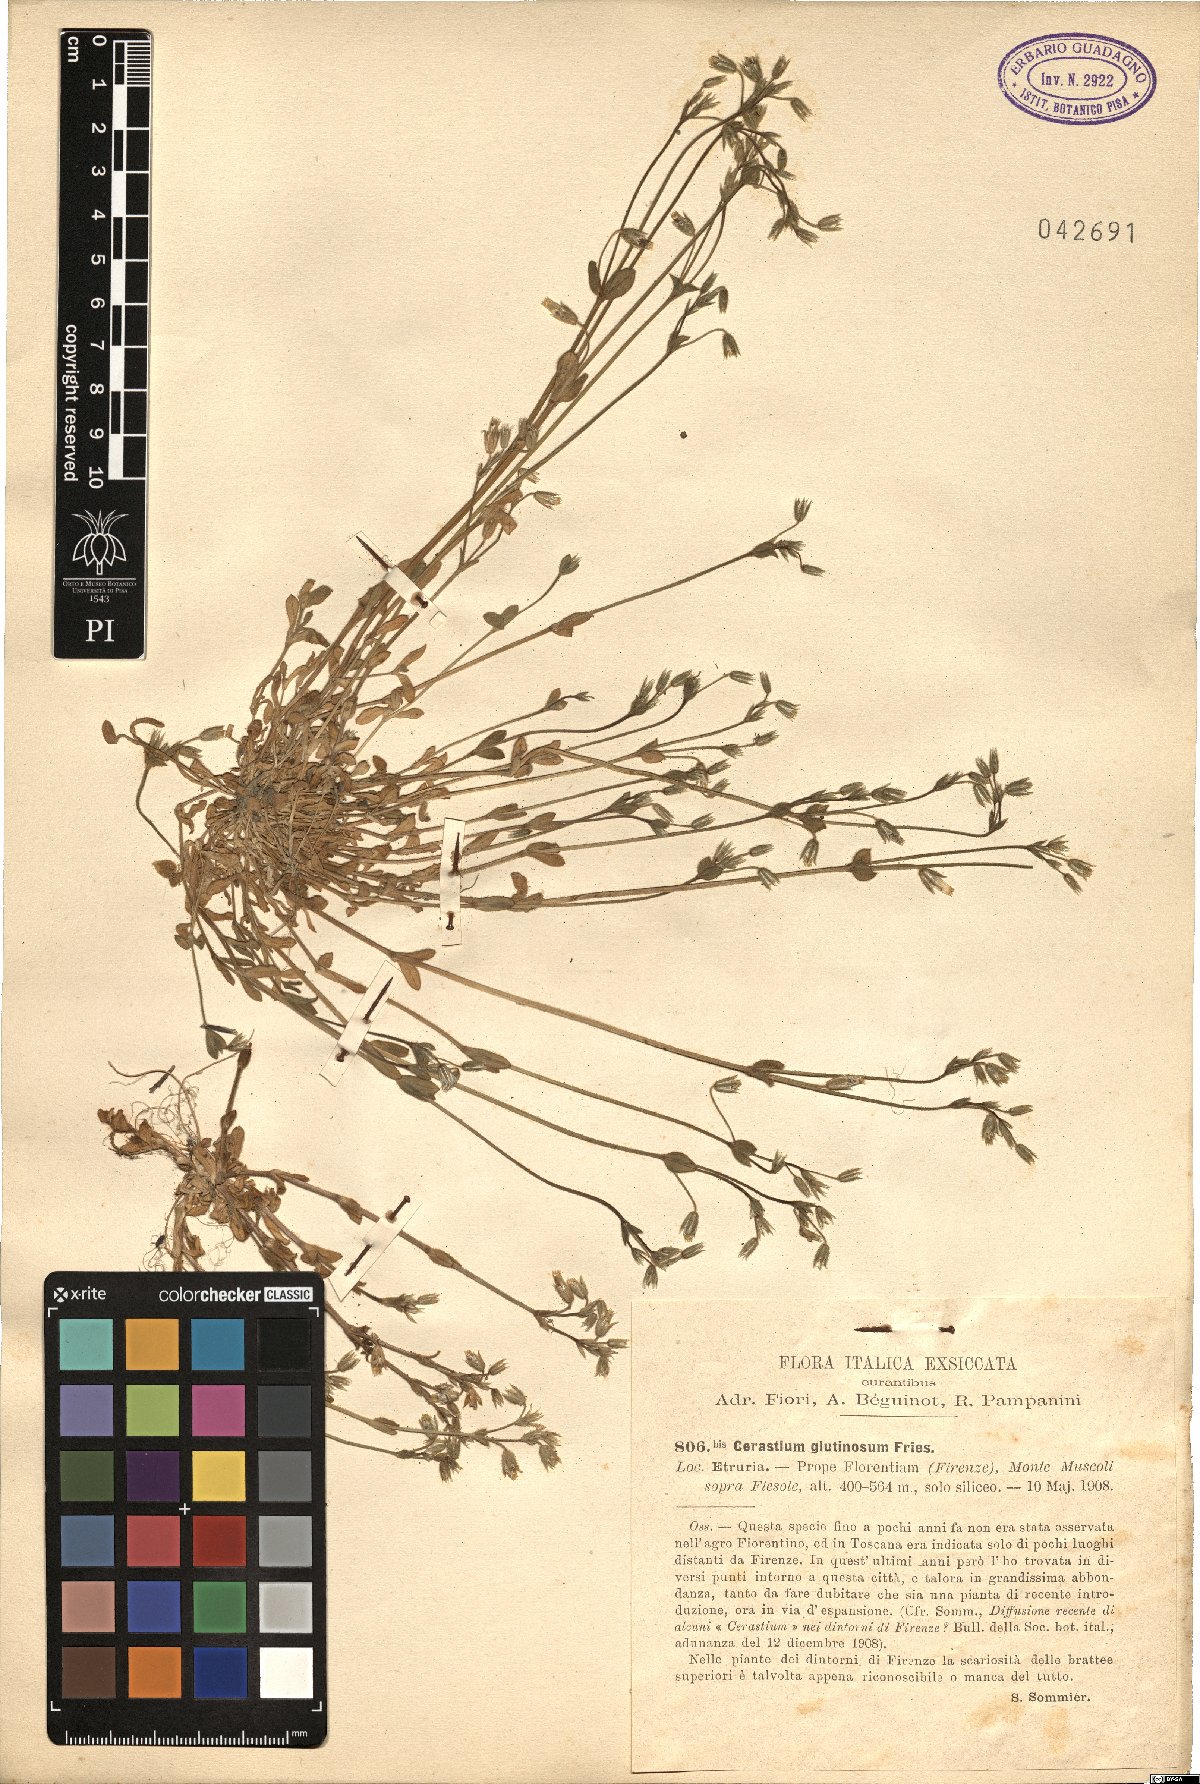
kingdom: Plantae
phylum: Tracheophyta
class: Magnoliopsida
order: Caryophyllales
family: Caryophyllaceae
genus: Cerastium
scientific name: Cerastium glutinosum
